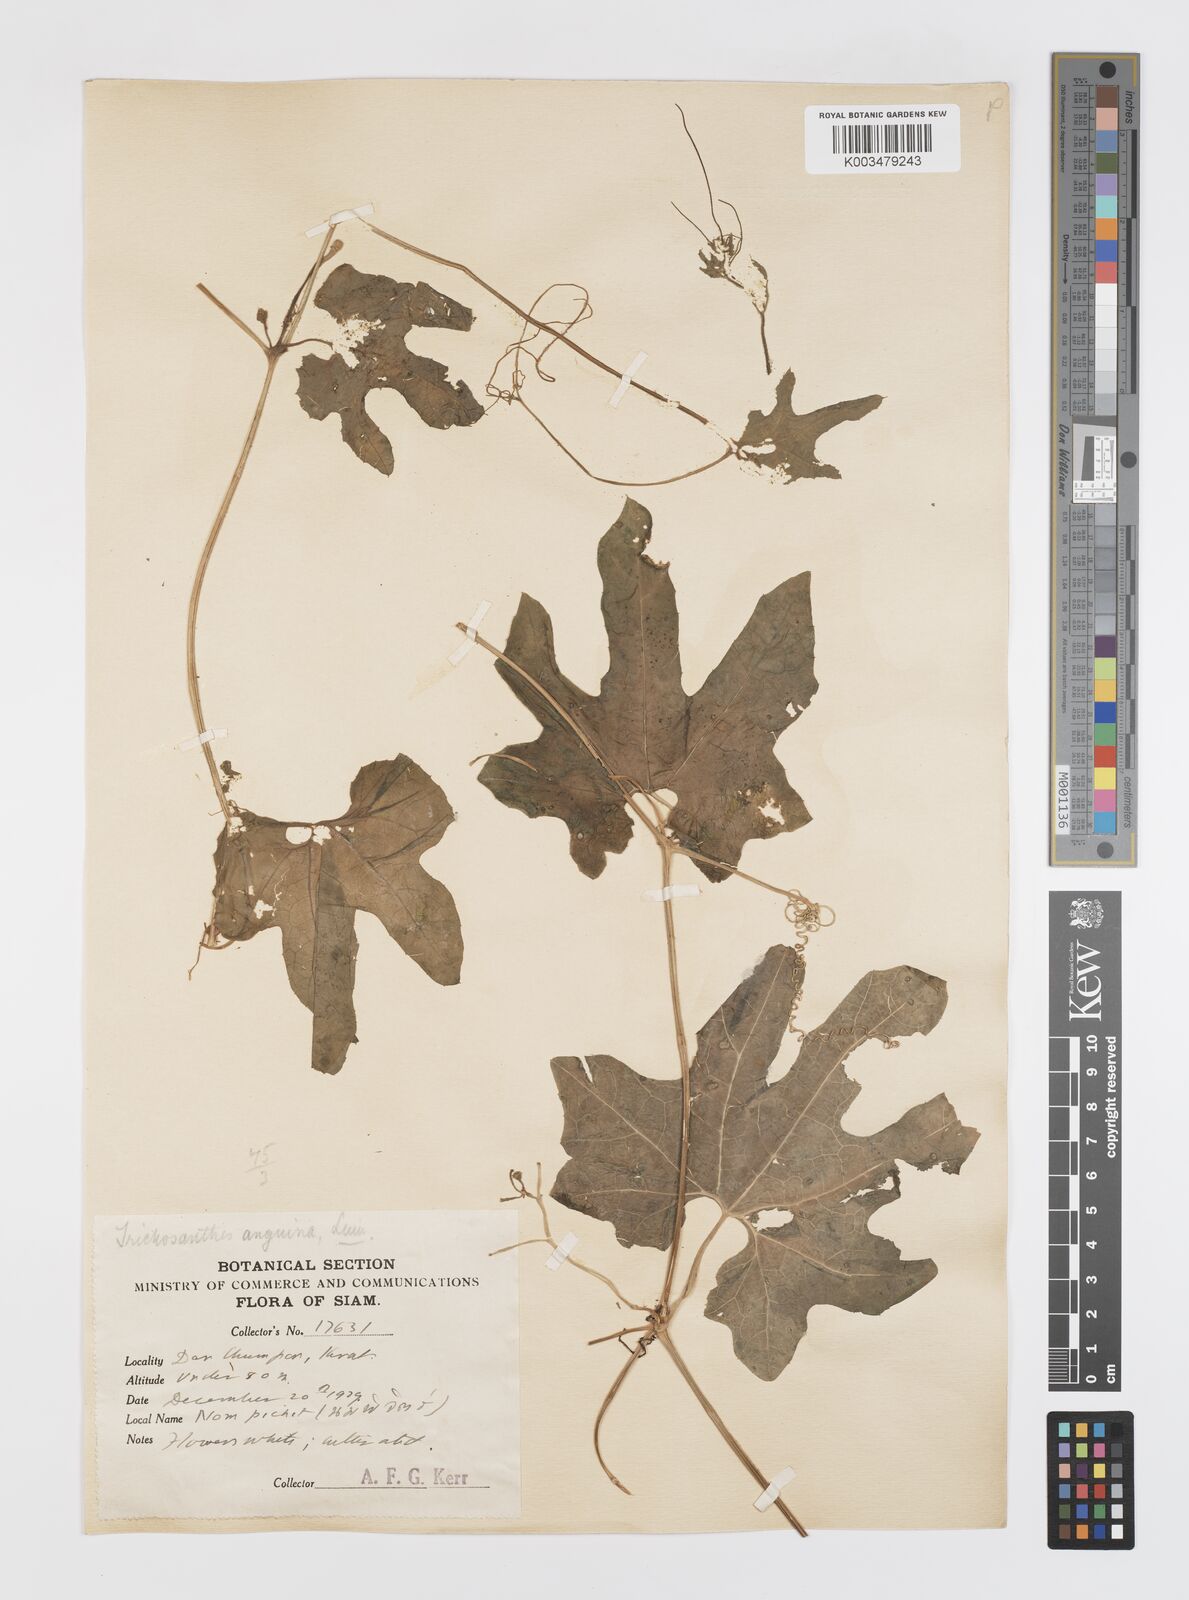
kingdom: Plantae
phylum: Tracheophyta
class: Magnoliopsida
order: Cucurbitales
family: Cucurbitaceae
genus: Trichosanthes
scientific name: Trichosanthes cucumerina
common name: Snakegourd
